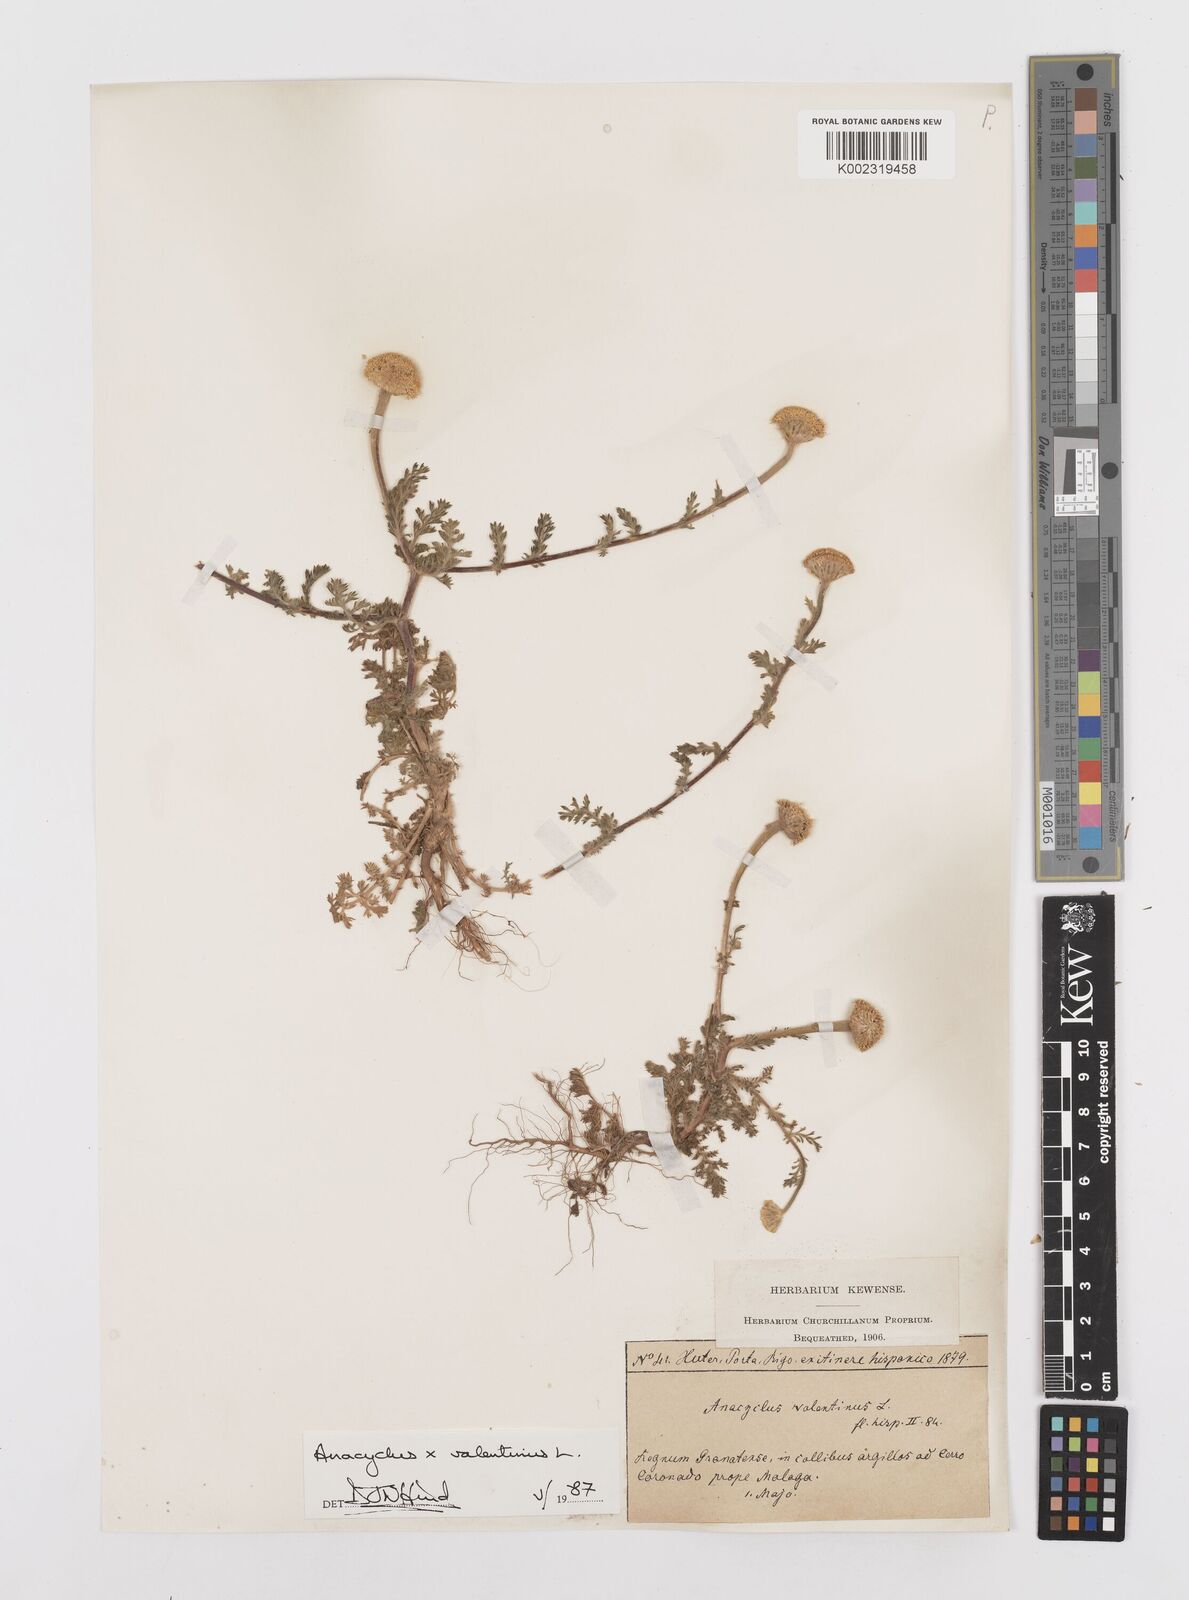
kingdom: Plantae
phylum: Tracheophyta
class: Magnoliopsida
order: Asterales
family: Asteraceae
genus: Anacyclus
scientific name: Anacyclus valentinus
